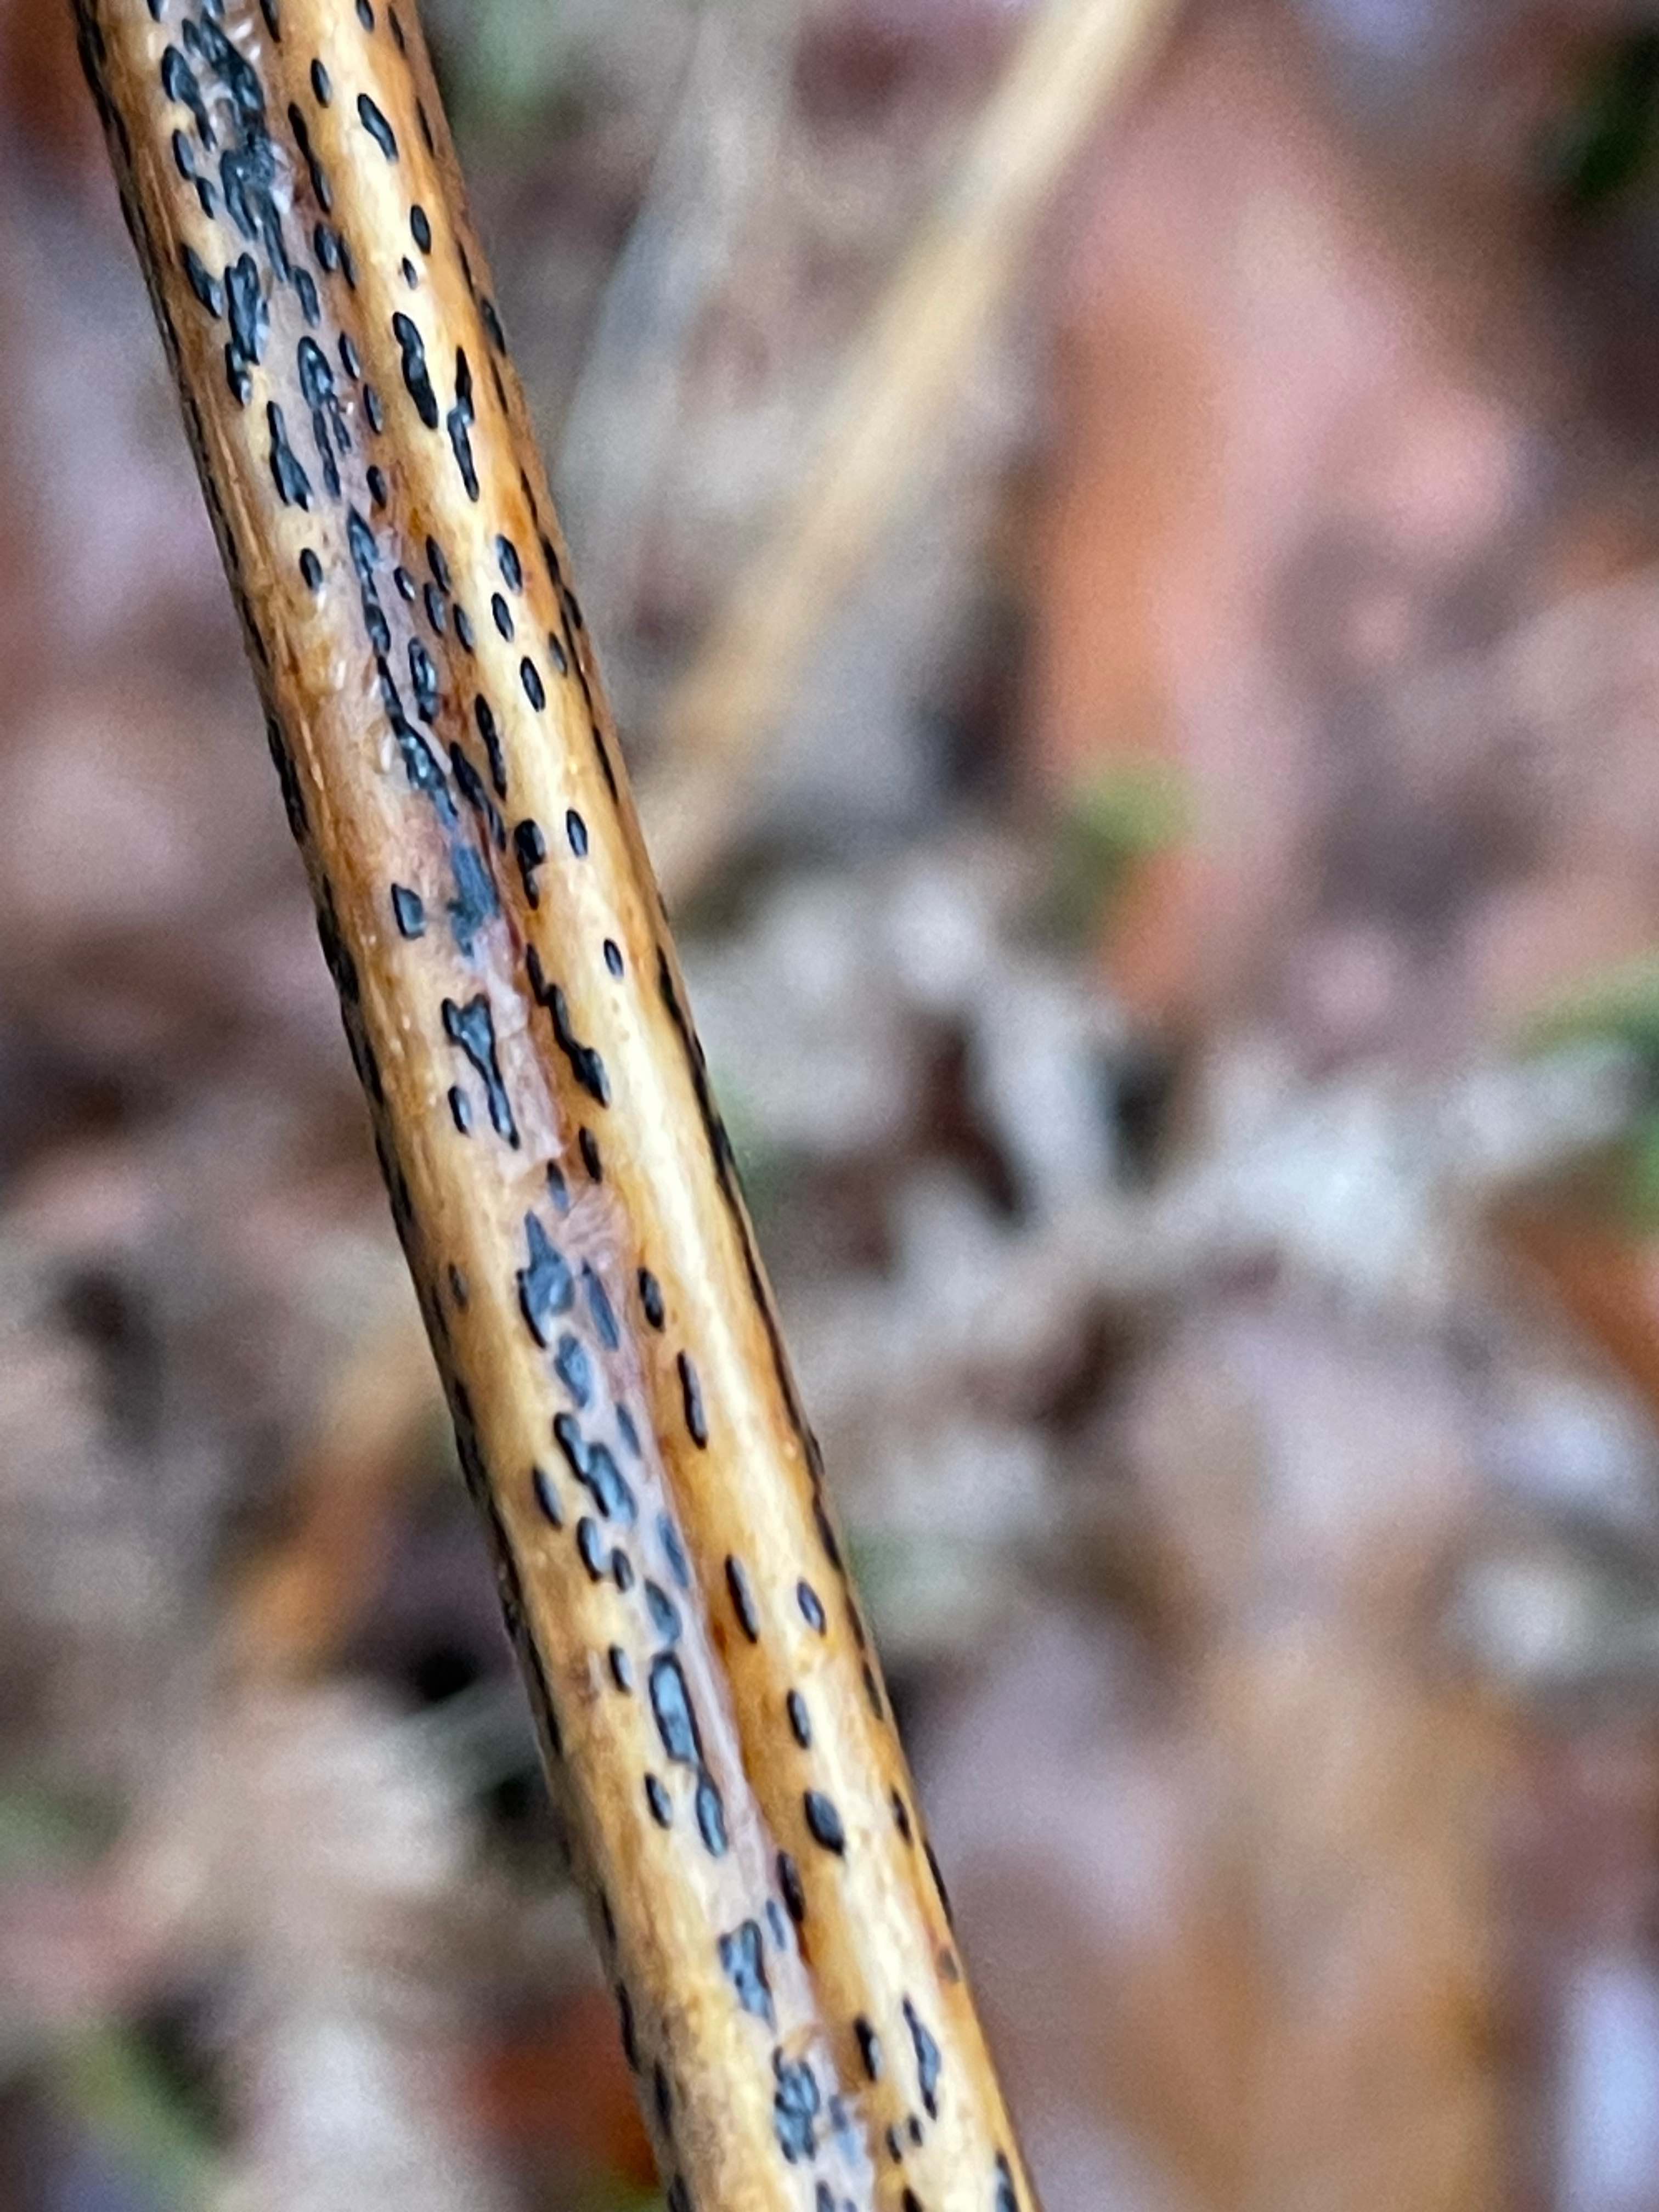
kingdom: Fungi
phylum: Ascomycota
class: Dothideomycetes
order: Pleosporales
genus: Rhopographus
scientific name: Rhopographus filicinus
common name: Bracken map
